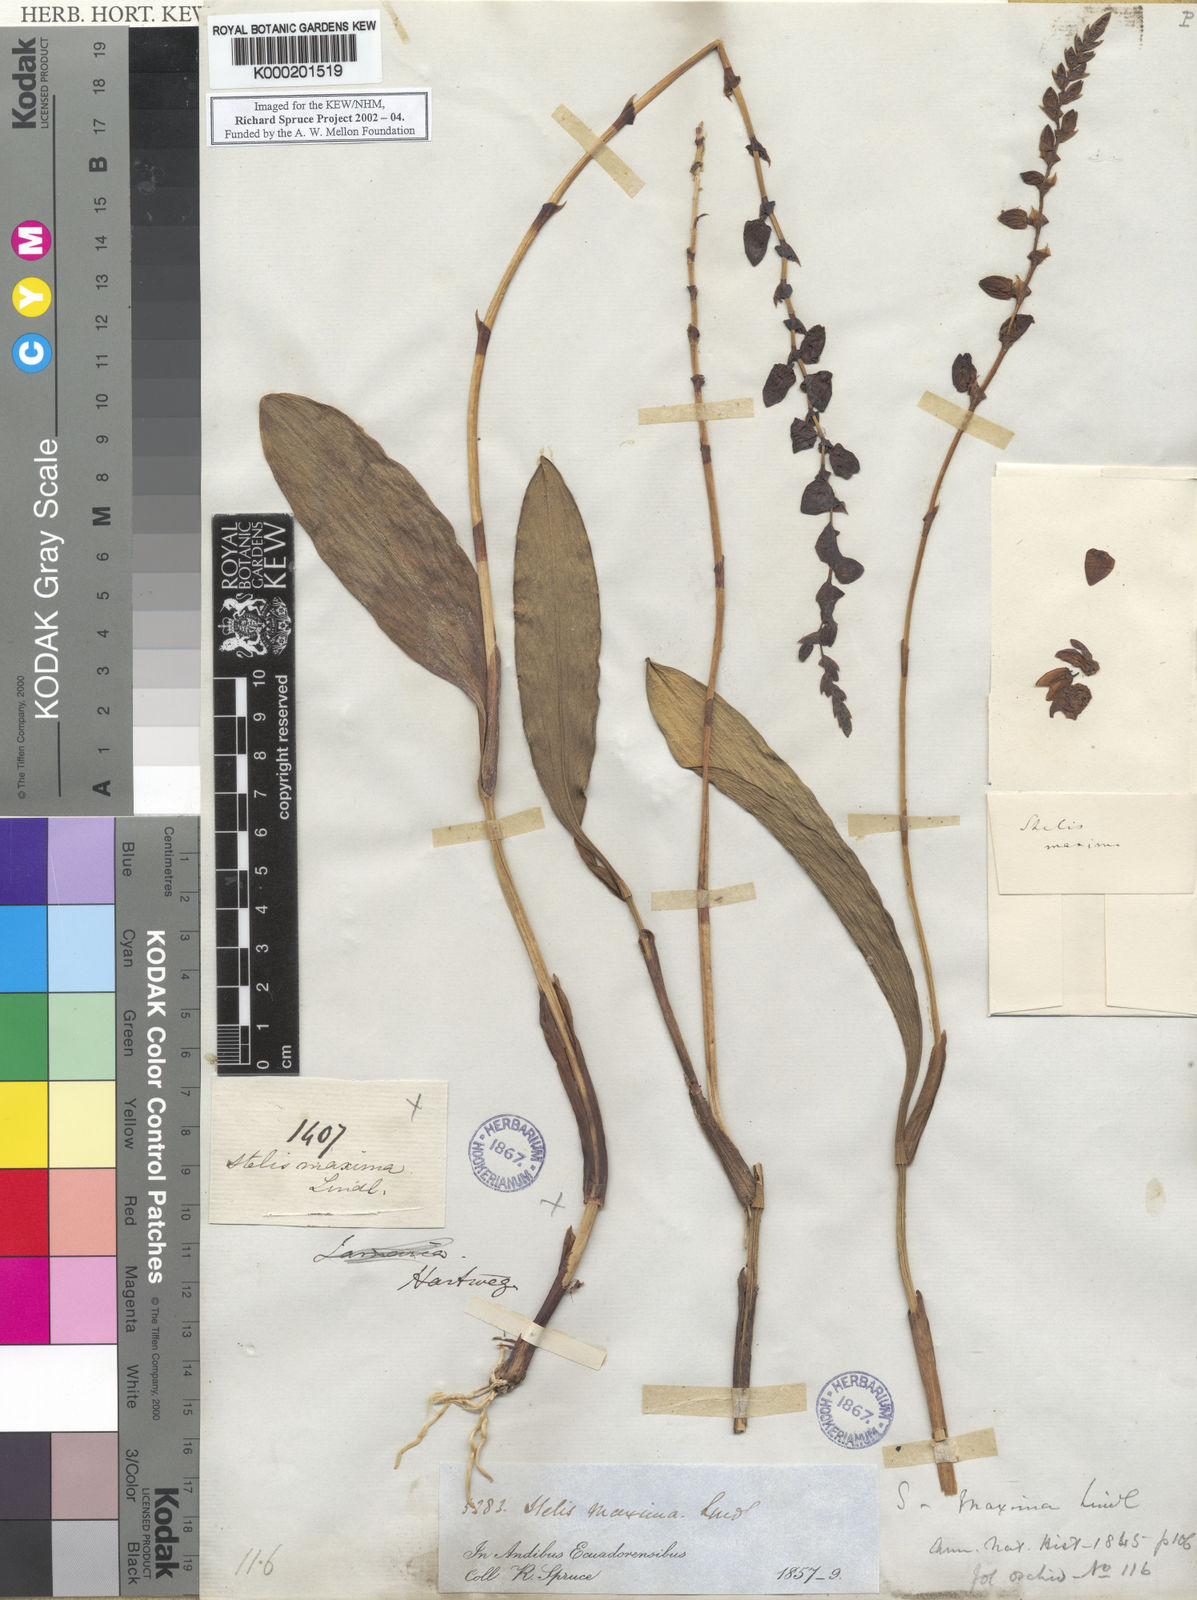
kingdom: Plantae
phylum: Tracheophyta
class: Liliopsida
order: Asparagales
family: Orchidaceae
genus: Stelis
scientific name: Stelis maxima
